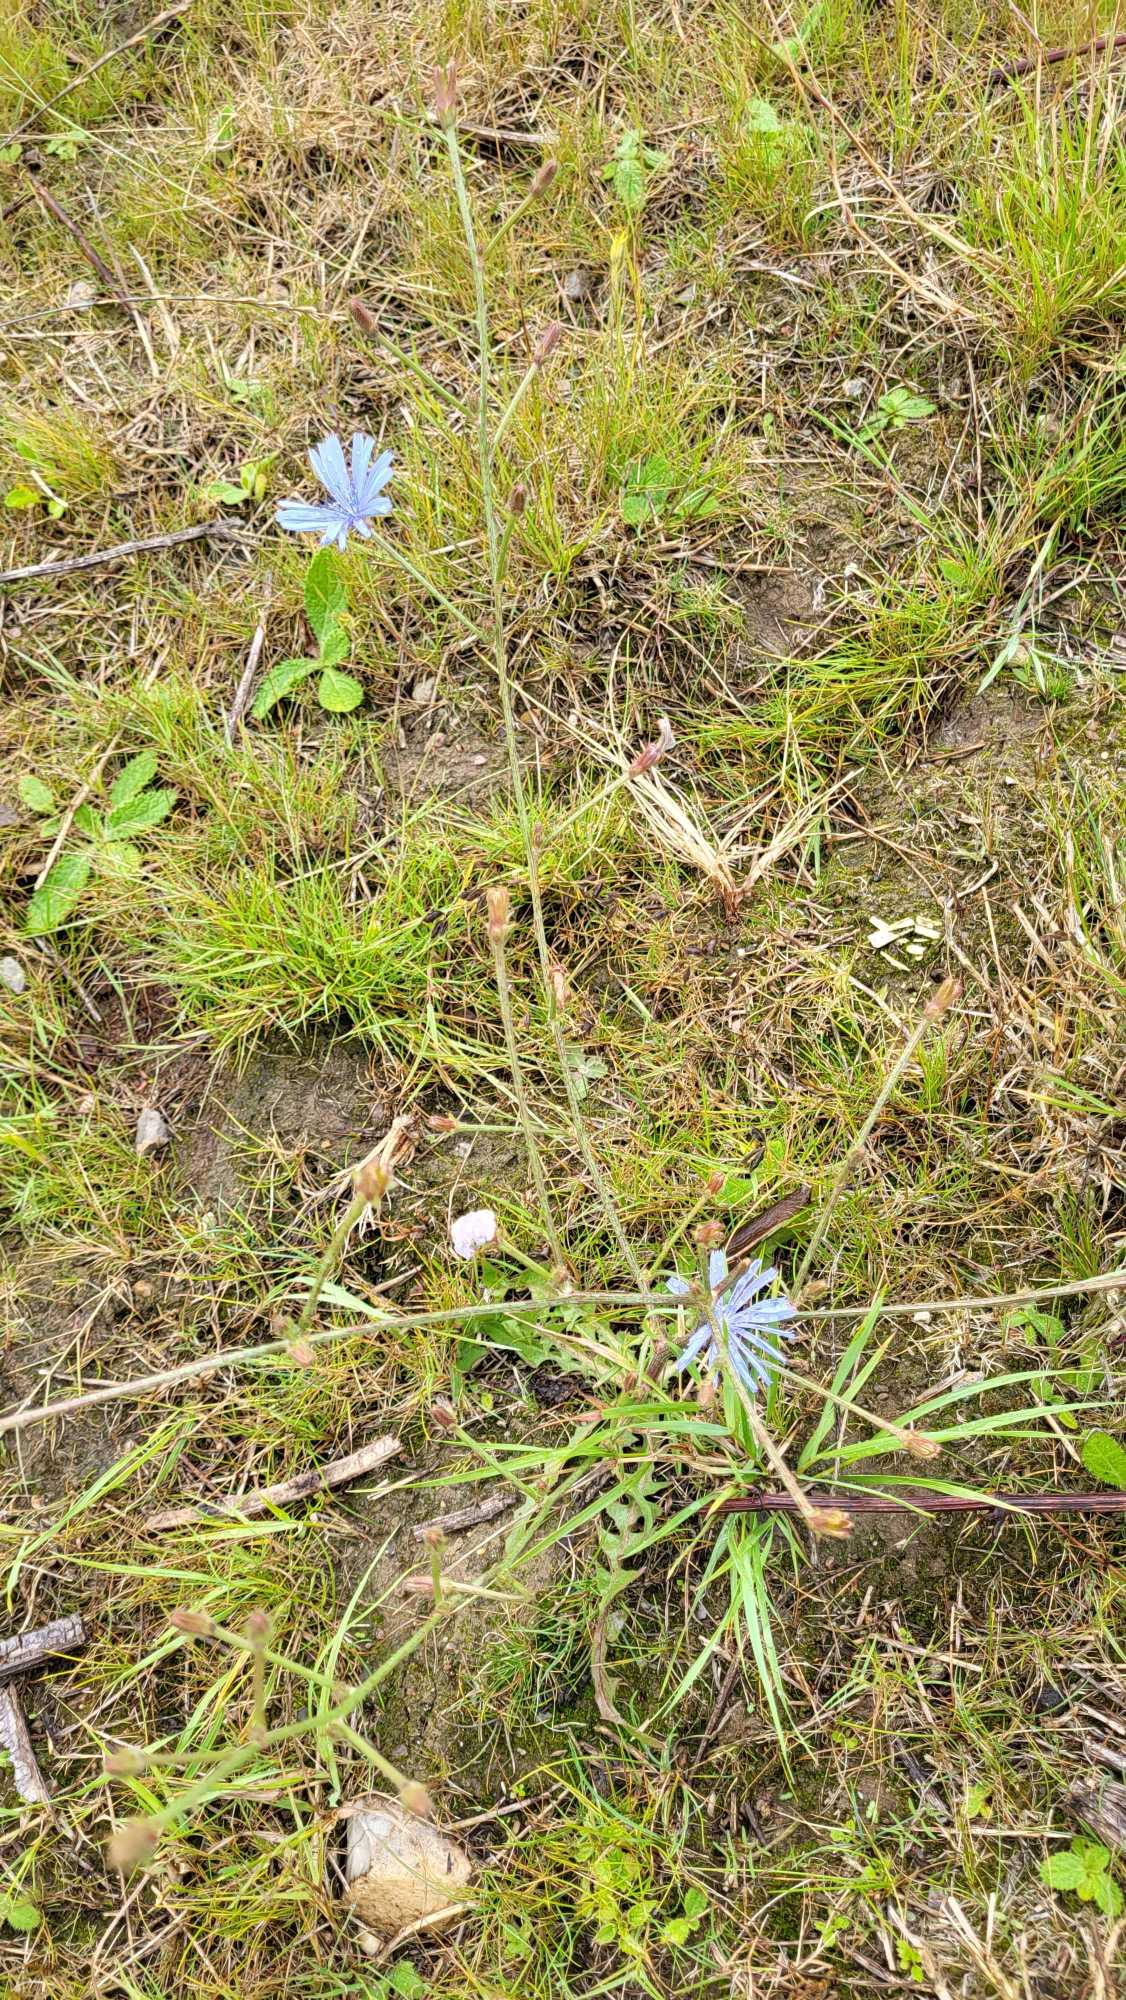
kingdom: Plantae
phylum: Tracheophyta
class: Magnoliopsida
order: Asterales
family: Asteraceae
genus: Cichorium
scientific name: Cichorium intybus
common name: Cikorie
